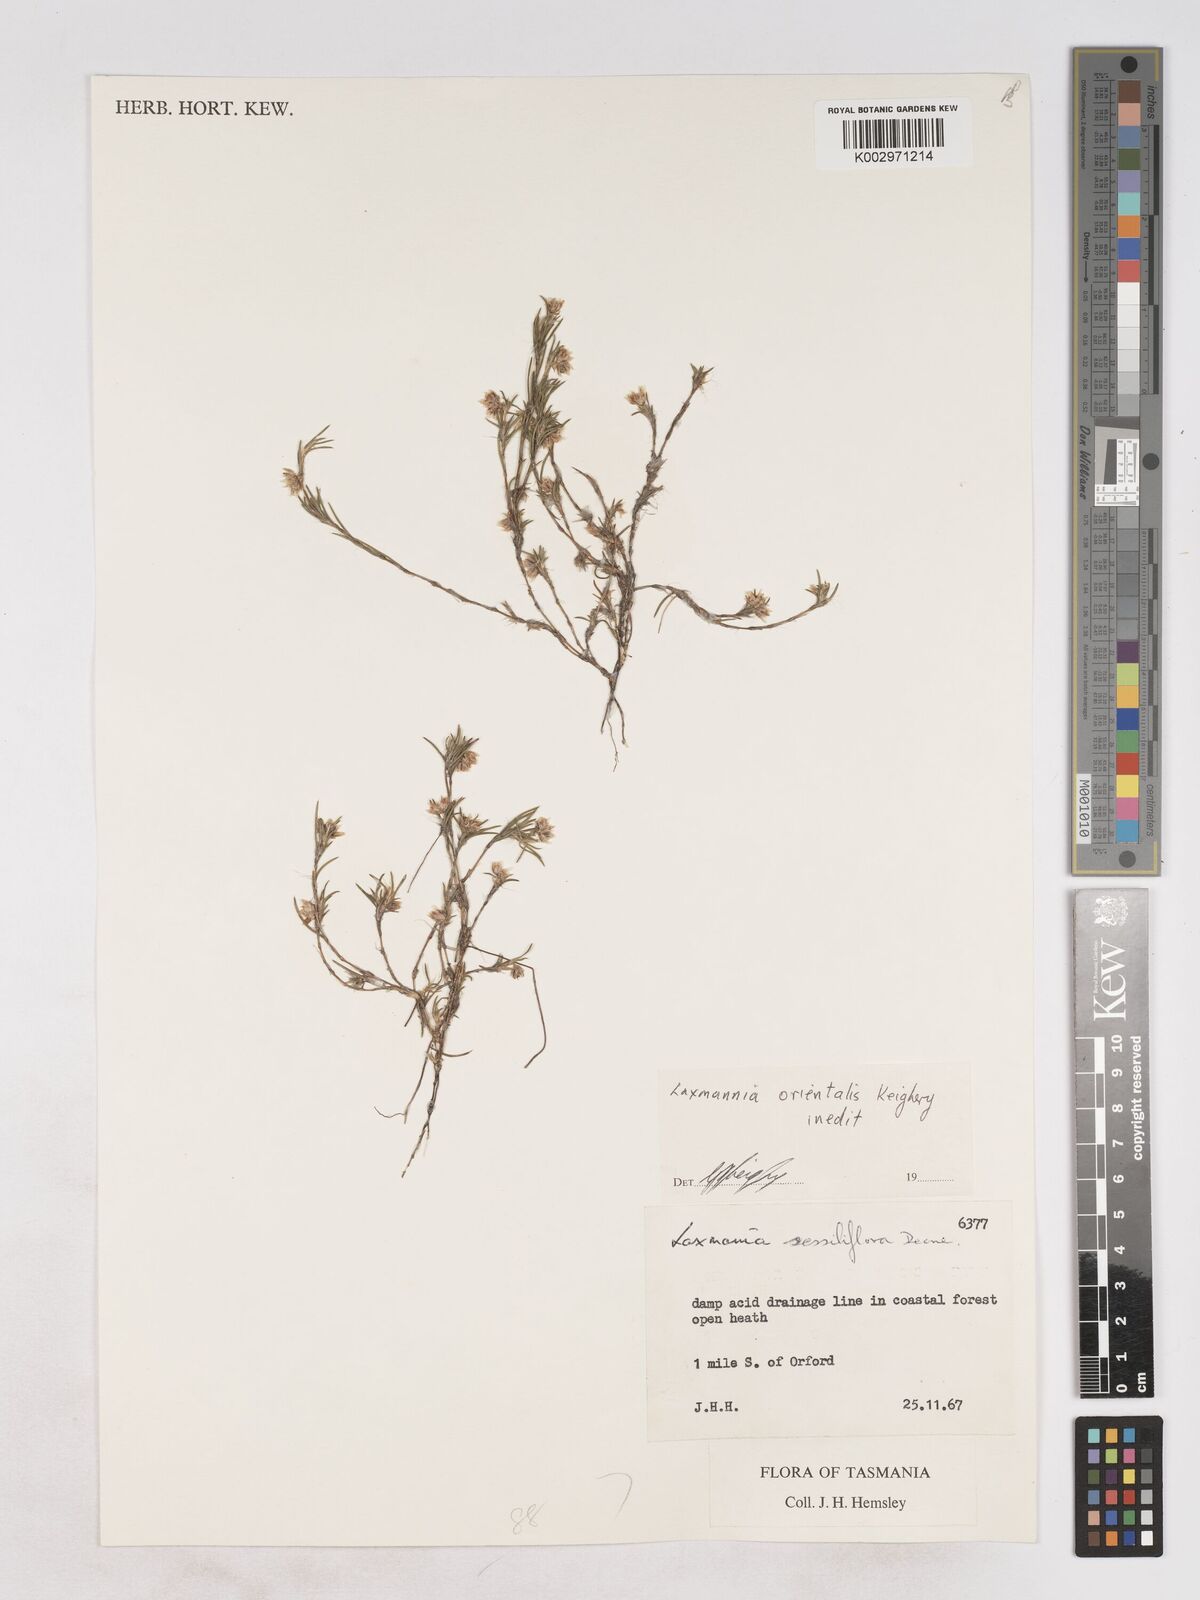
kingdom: Plantae
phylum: Tracheophyta
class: Liliopsida
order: Asparagales
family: Asparagaceae
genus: Laxmannia
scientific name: Laxmannia orientalis
